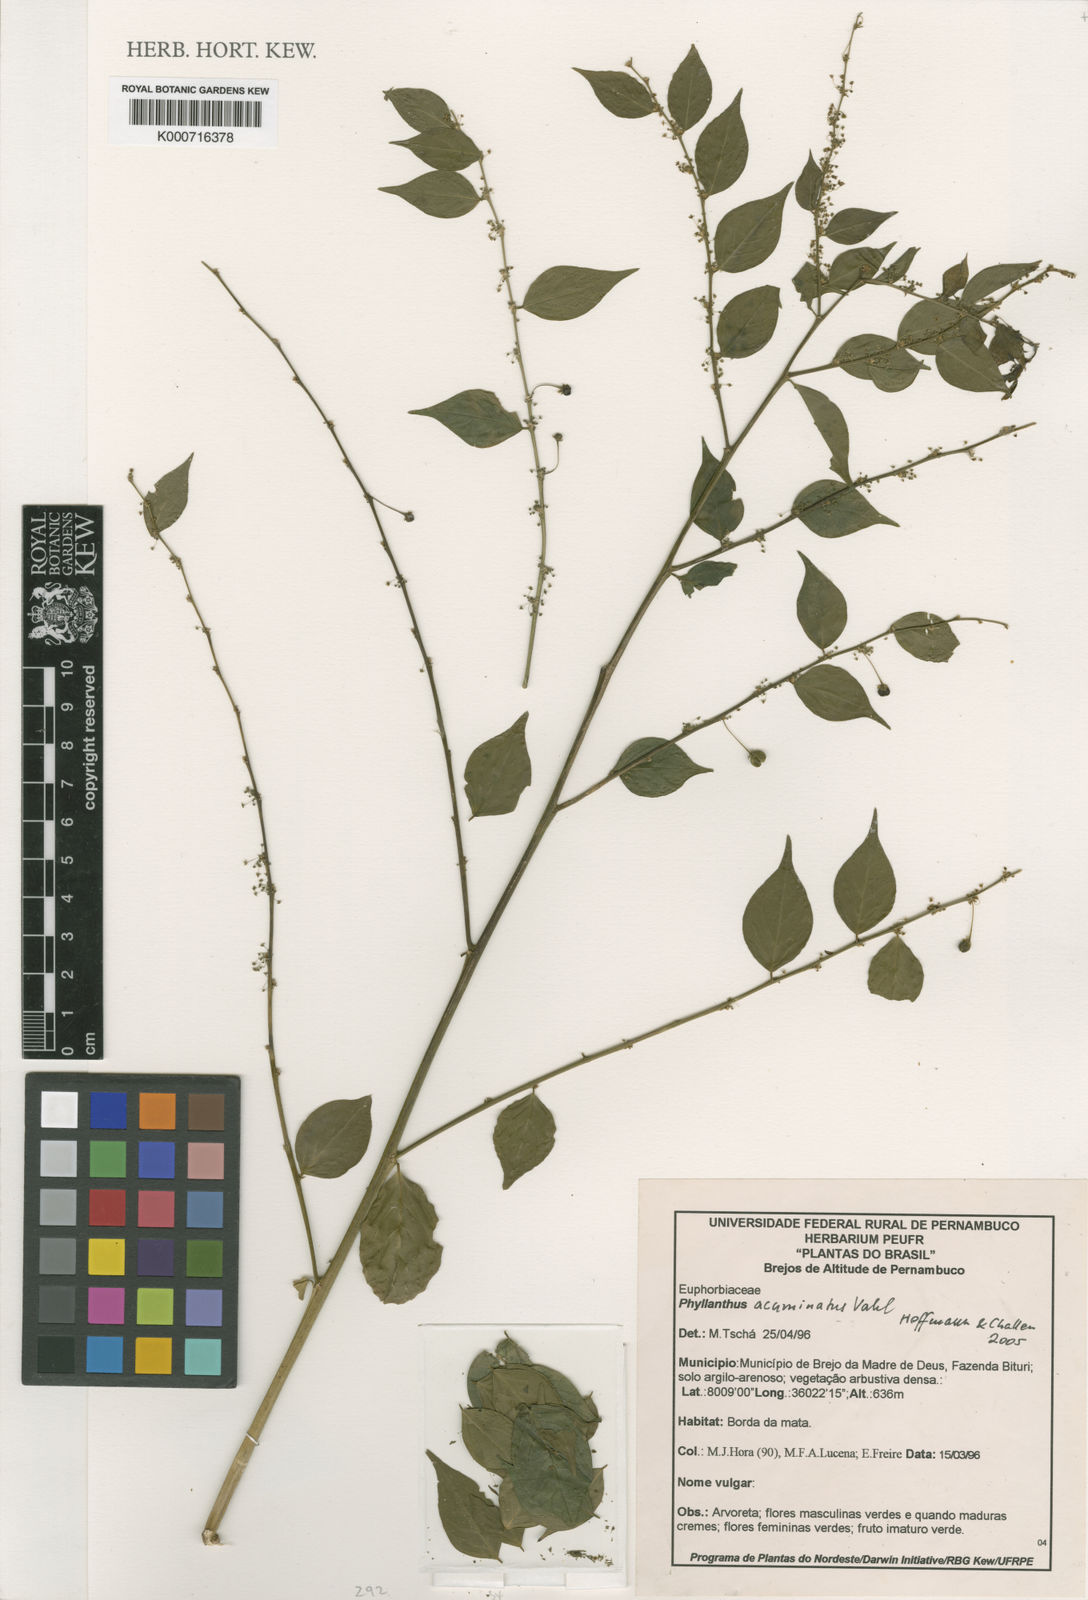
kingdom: Plantae
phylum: Tracheophyta
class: Magnoliopsida
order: Malpighiales
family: Phyllanthaceae
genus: Phyllanthus
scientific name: Phyllanthus acuminatus
